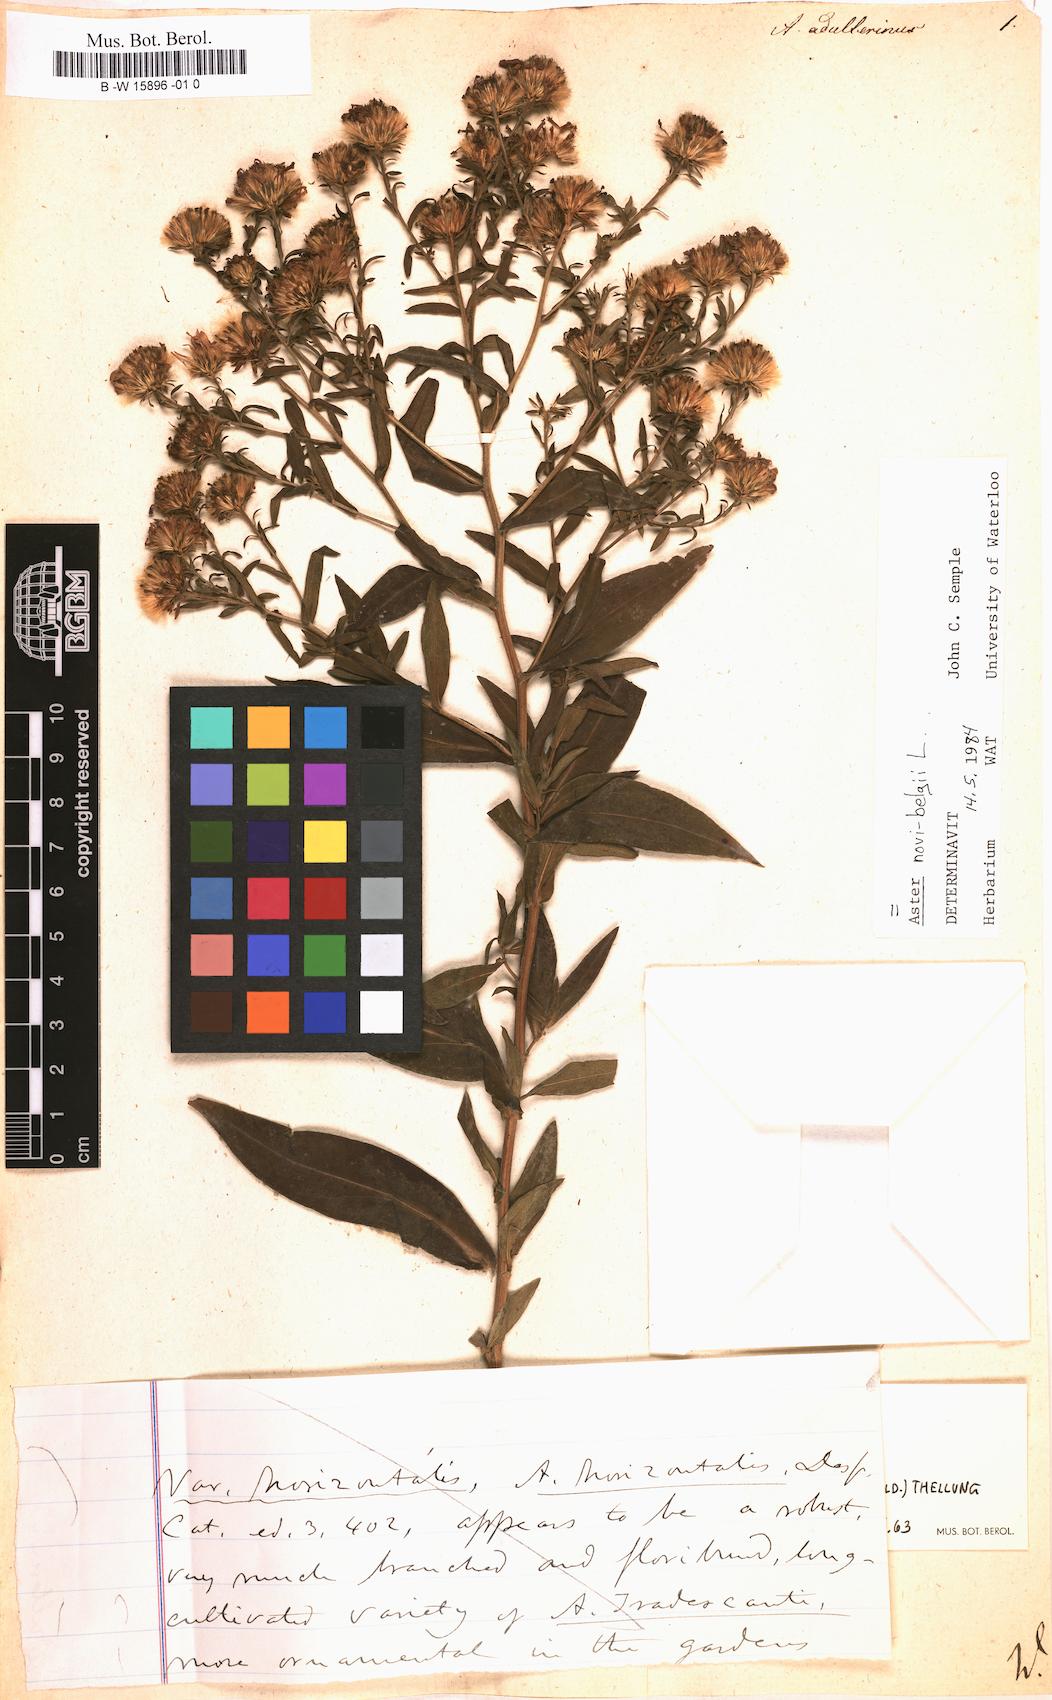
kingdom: Plantae
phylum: Tracheophyta
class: Magnoliopsida
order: Asterales
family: Asteraceae
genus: Symphyotrichum
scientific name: Symphyotrichum novi-belgii
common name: Michaelmas daisy
